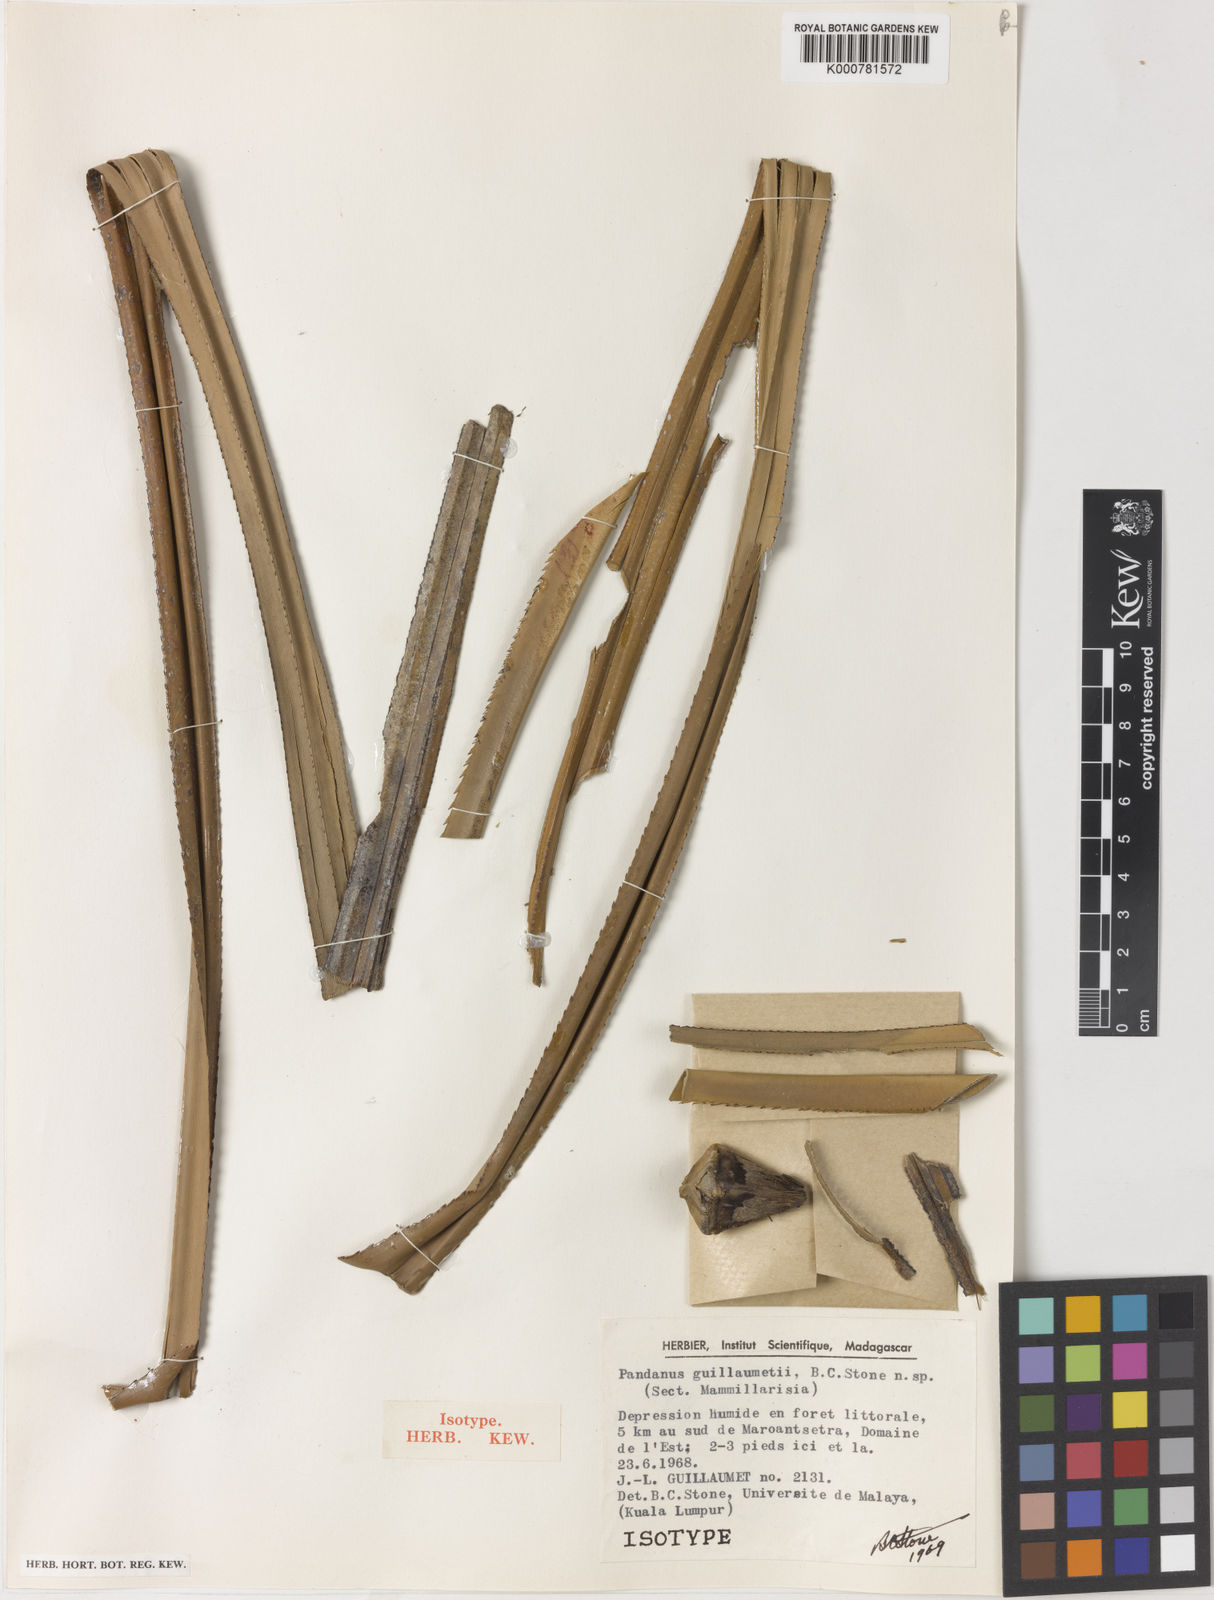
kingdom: Plantae
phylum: Tracheophyta
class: Liliopsida
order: Pandanales
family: Pandanaceae
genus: Pandanus
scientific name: Pandanus
